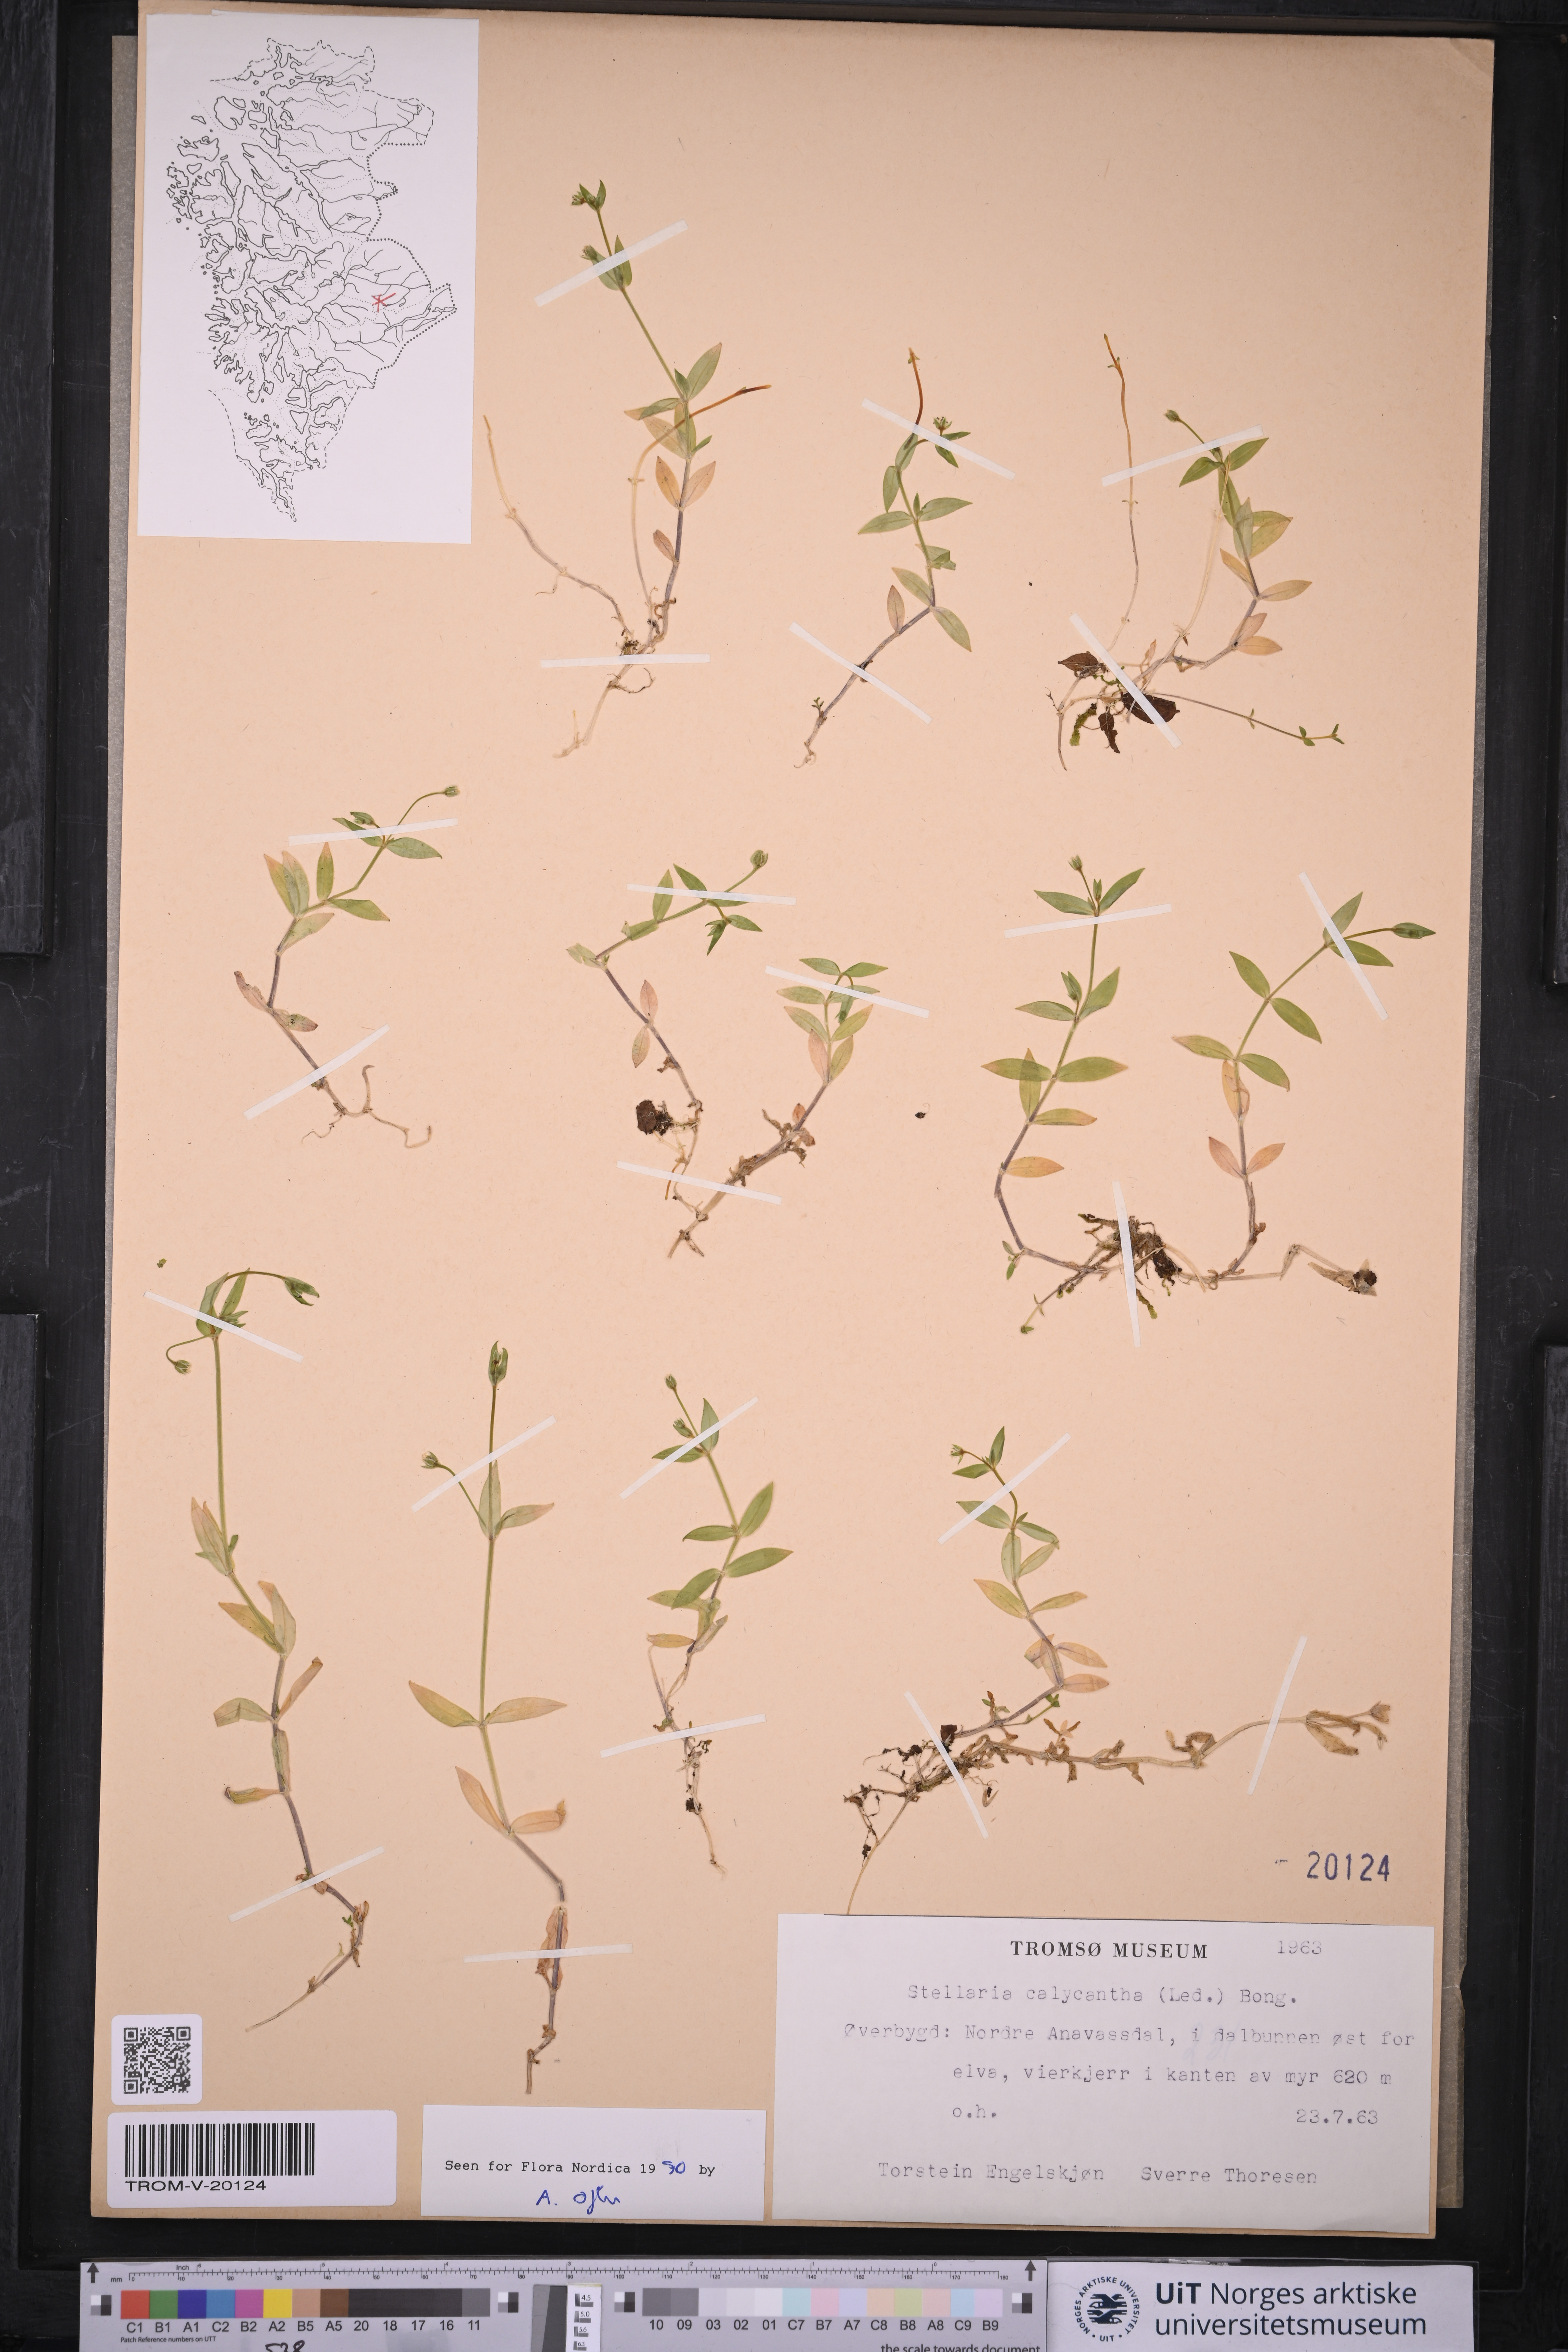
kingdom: Plantae
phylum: Tracheophyta
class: Magnoliopsida
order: Caryophyllales
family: Caryophyllaceae
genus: Stellaria
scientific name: Stellaria borealis
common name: Boreal starwort
